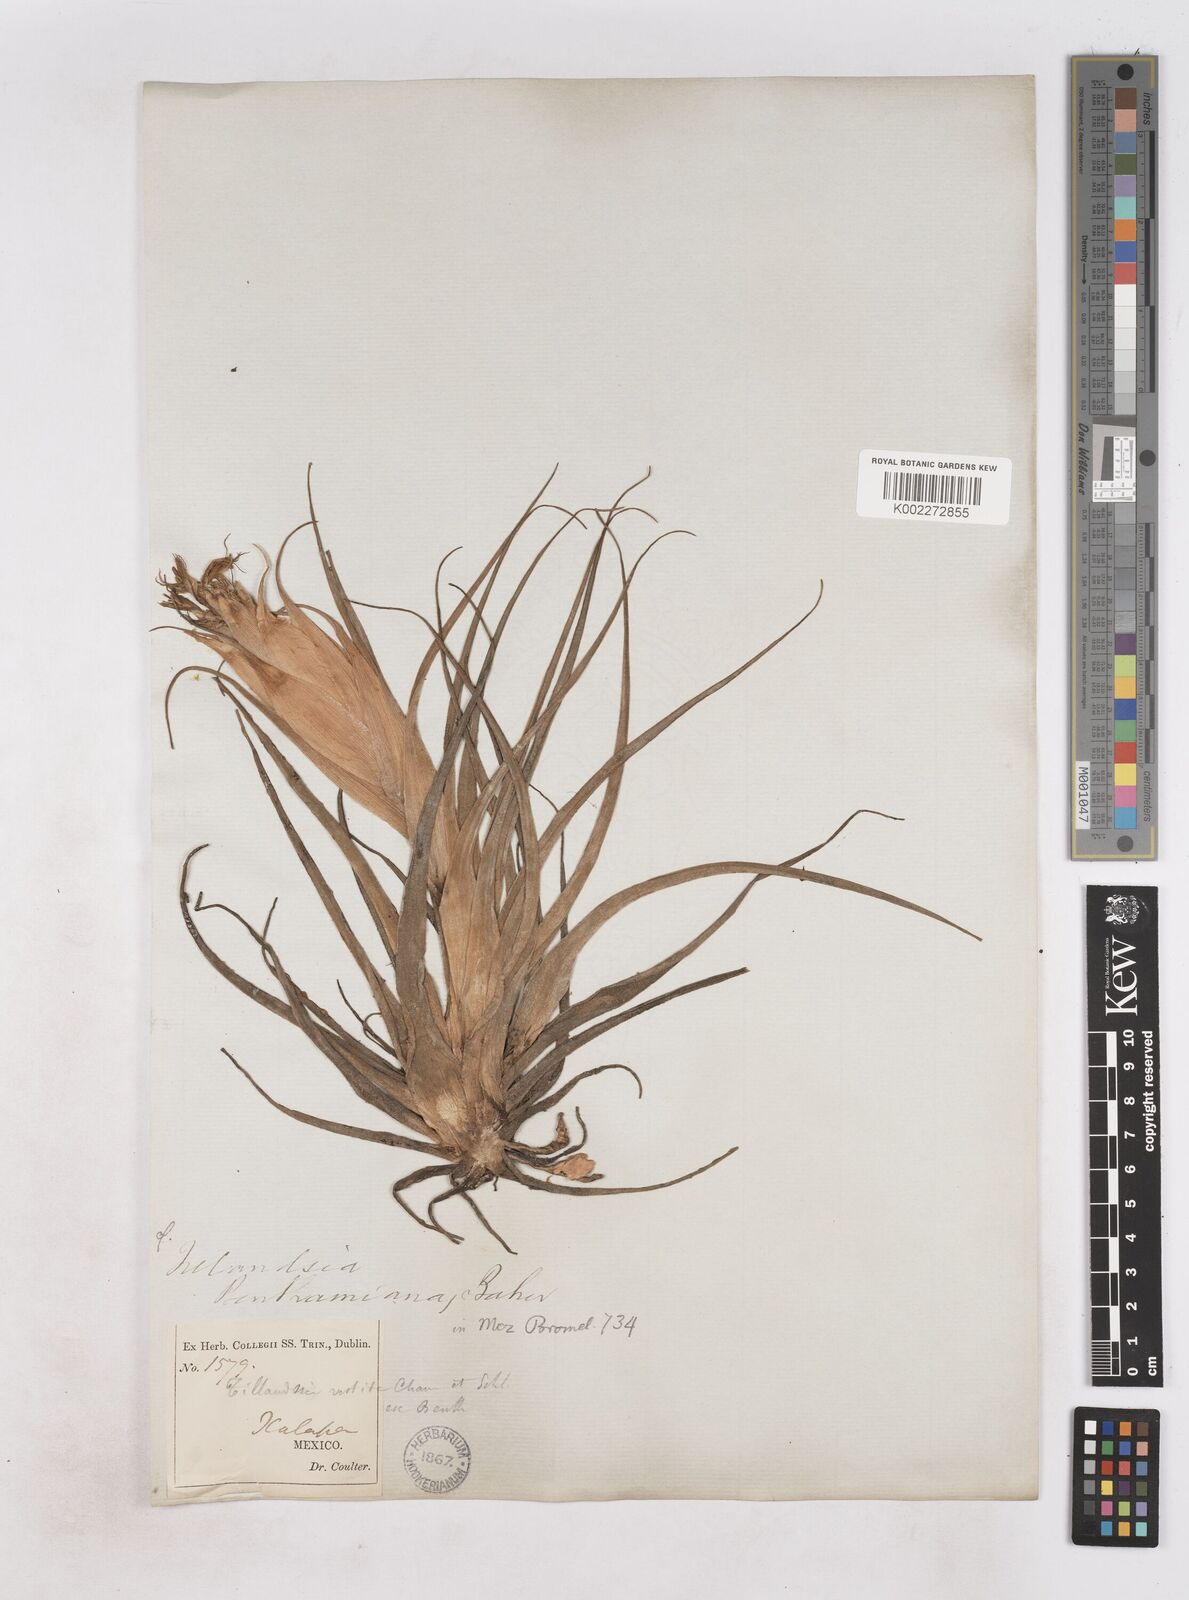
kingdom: Plantae
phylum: Tracheophyta
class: Liliopsida
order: Poales
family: Bromeliaceae
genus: Tillandsia
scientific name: Tillandsia erubescens
